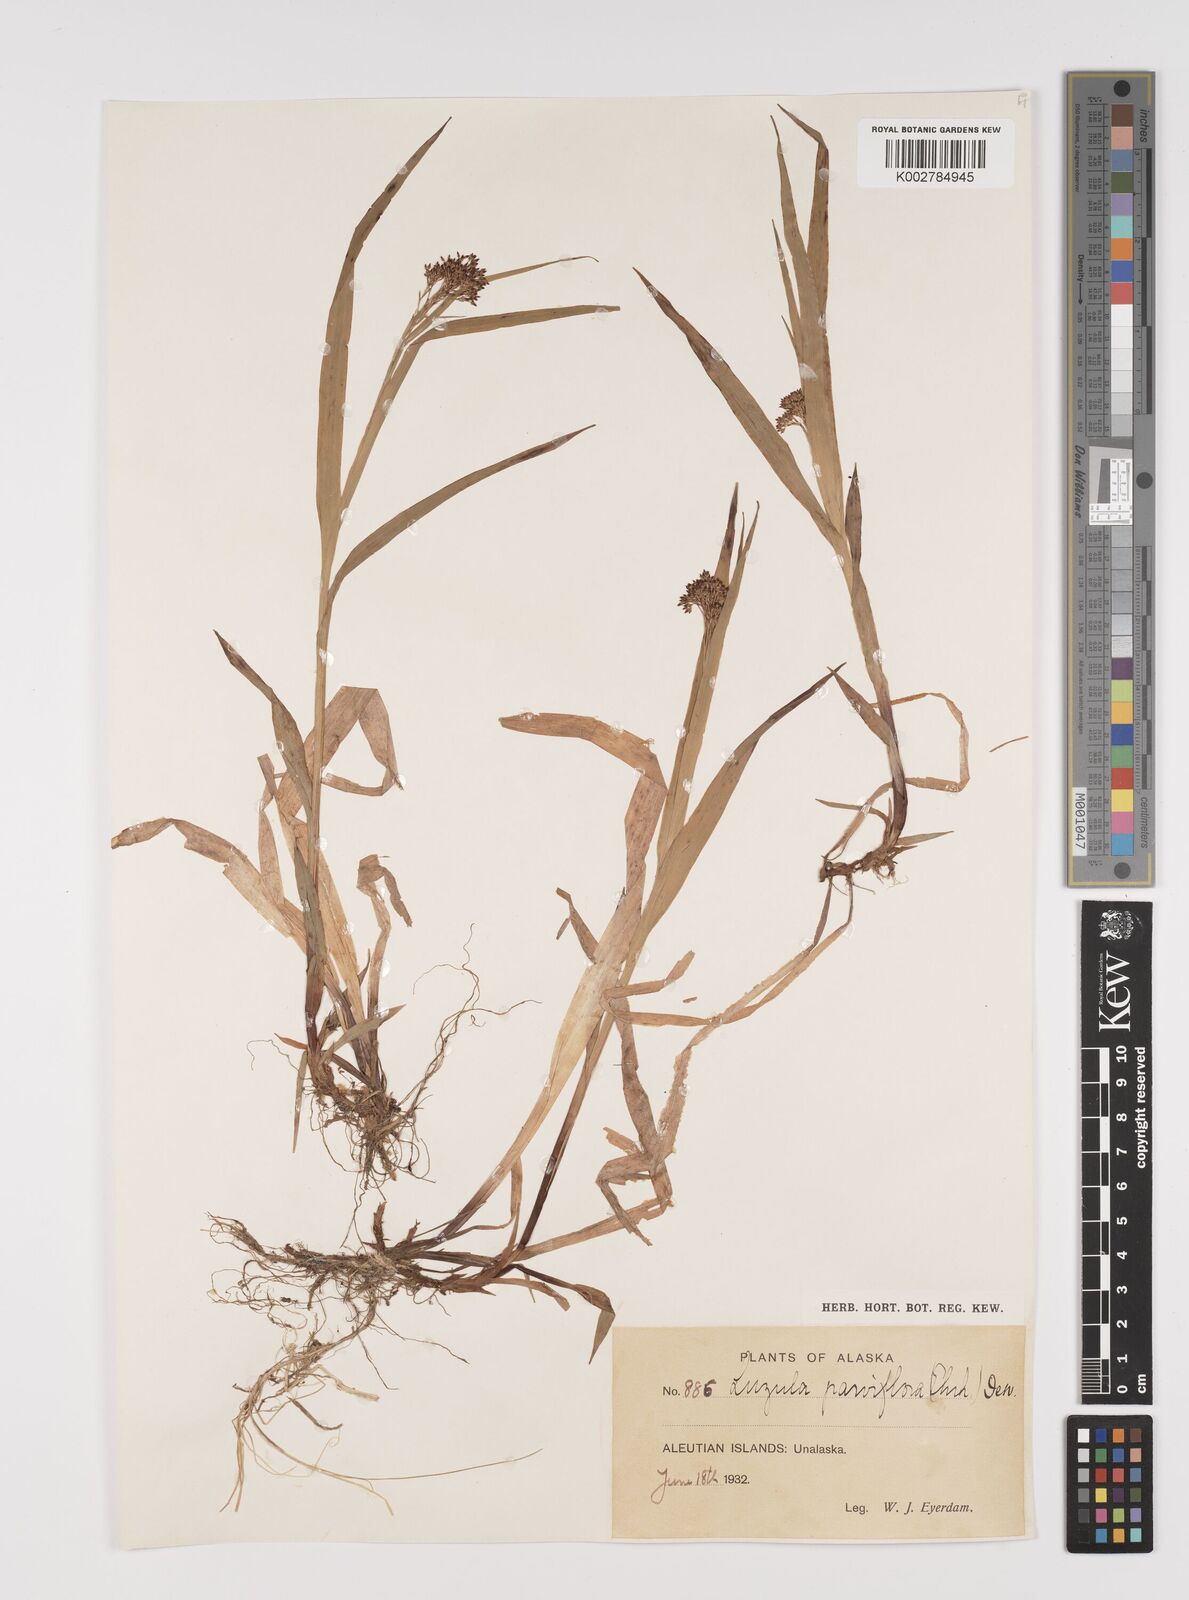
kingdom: Plantae
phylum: Tracheophyta
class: Liliopsida
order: Poales
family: Juncaceae
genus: Luzula
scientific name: Luzula parviflora
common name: Millet woodrush
